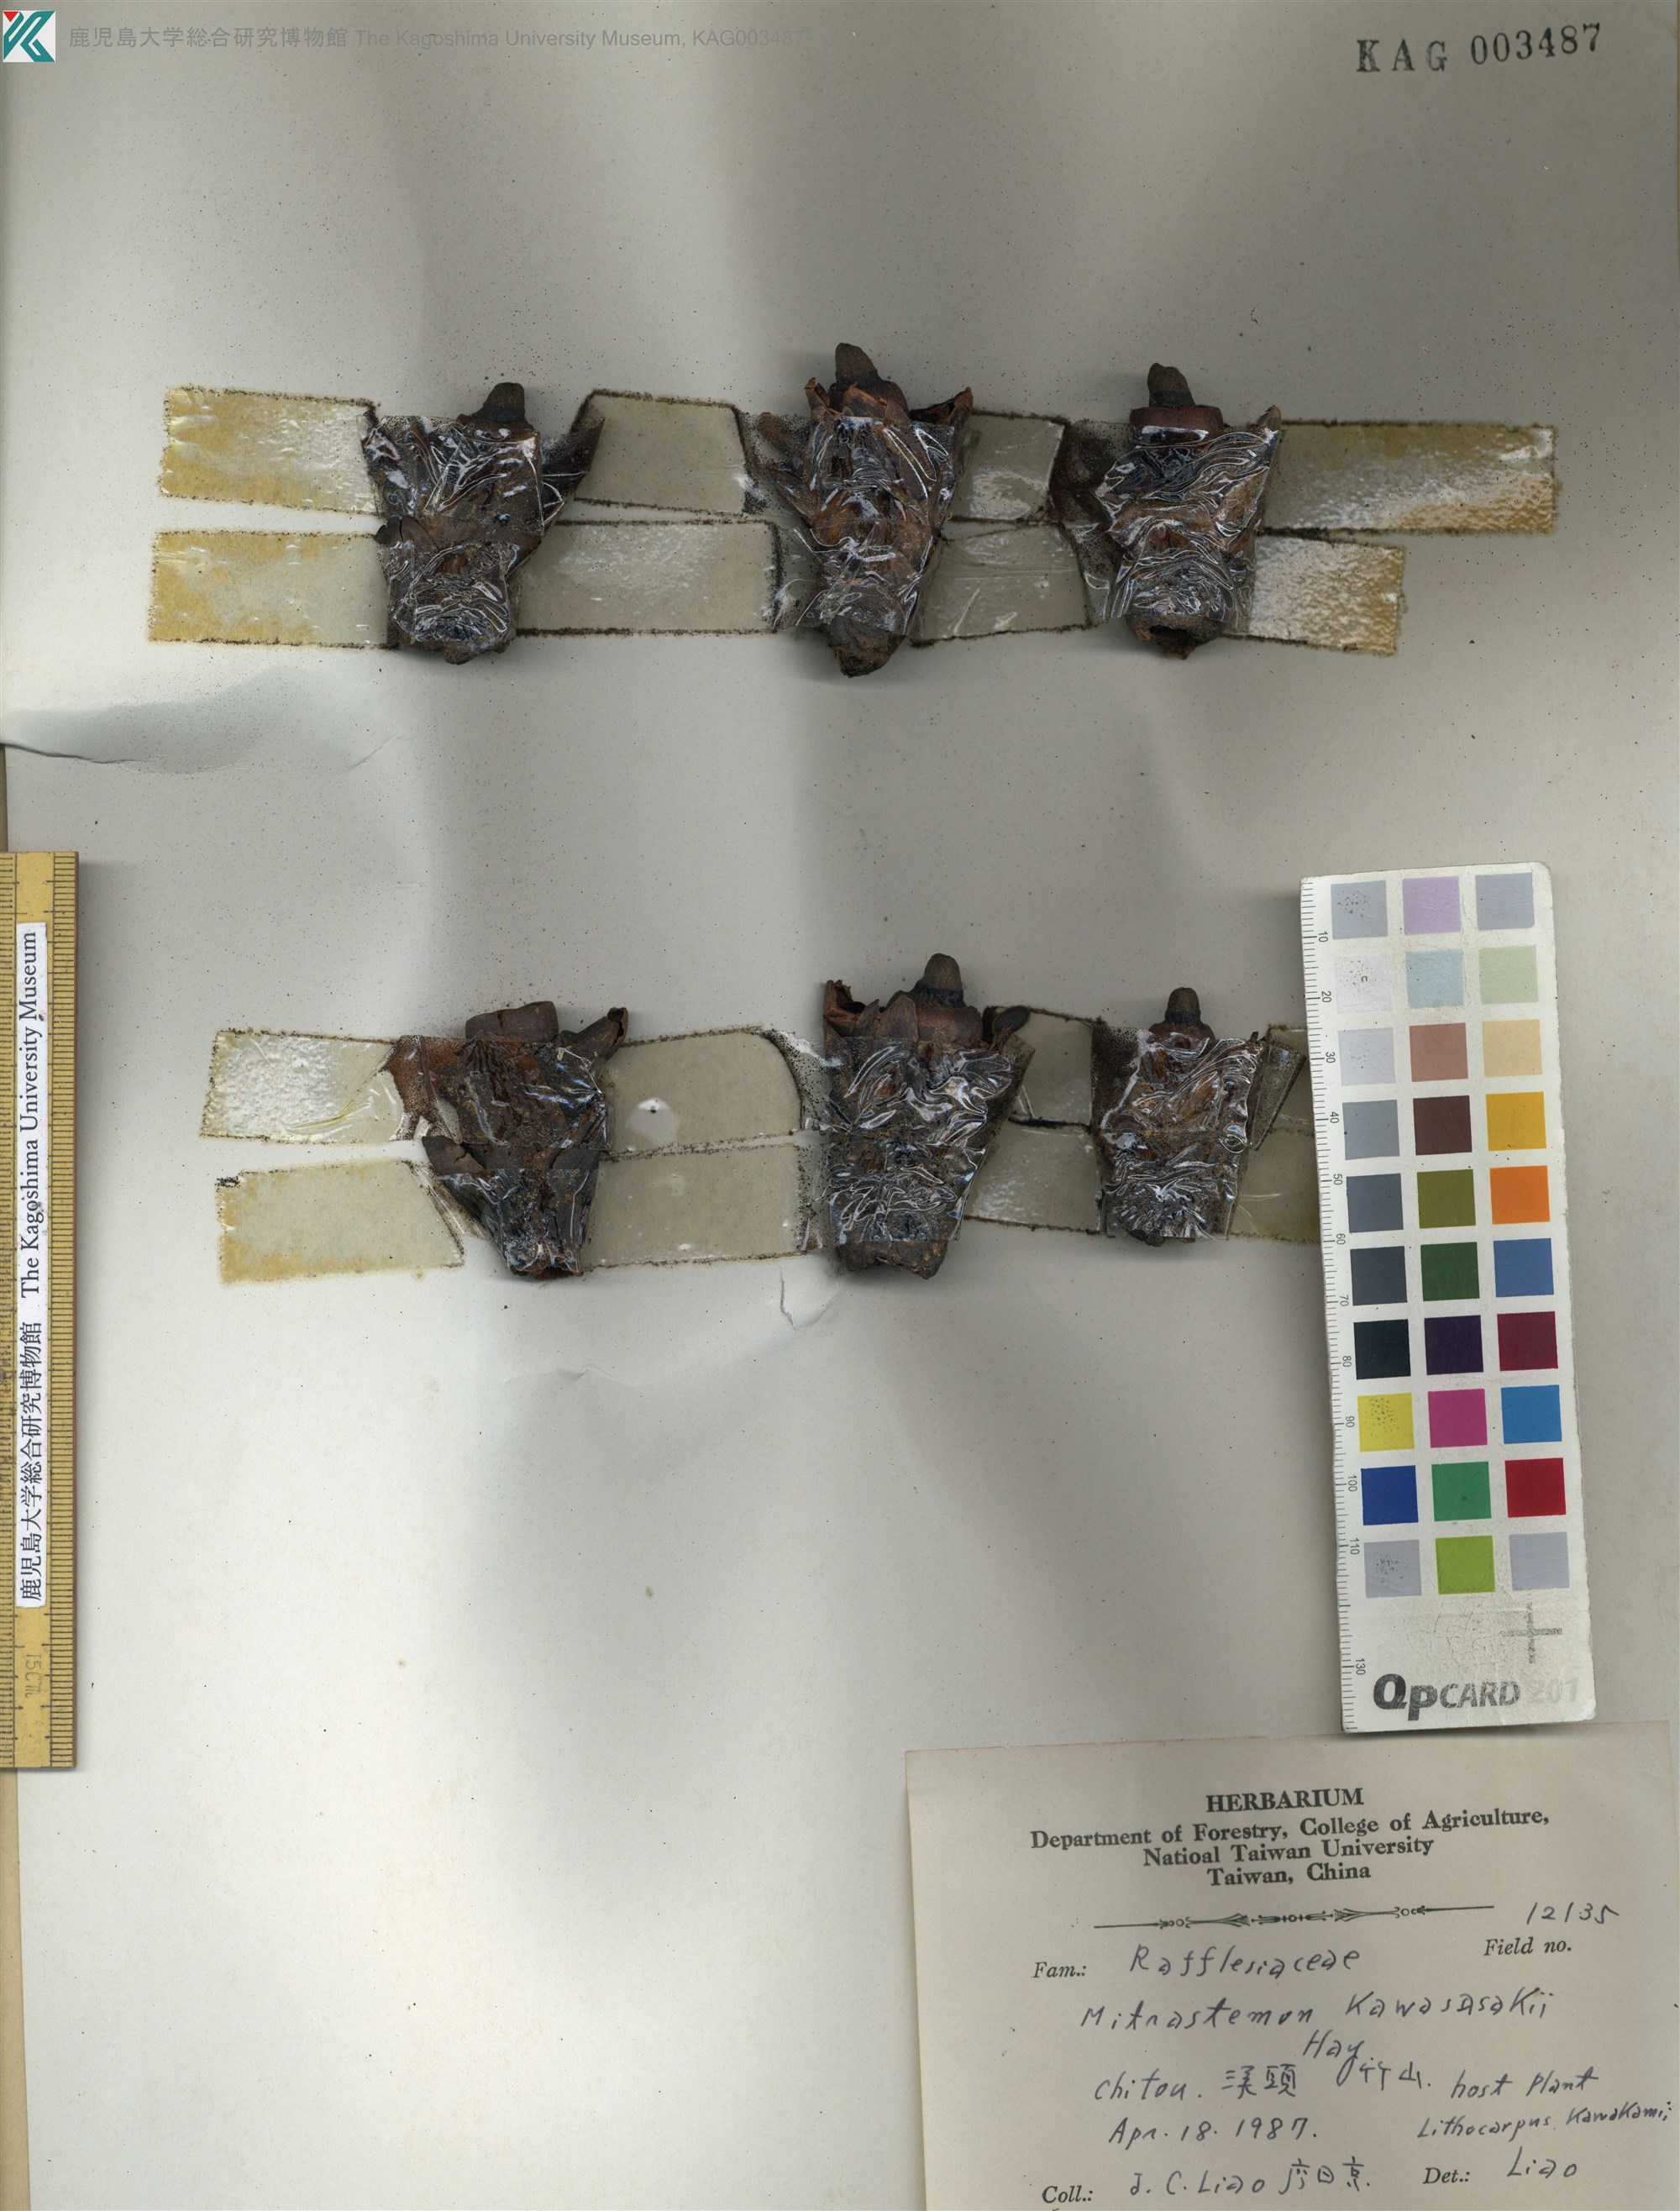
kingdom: Plantae
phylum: Tracheophyta
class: Magnoliopsida
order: Ericales
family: Mitrastemonaceae
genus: Mitrastemon
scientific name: Mitrastemon yamamotoi
